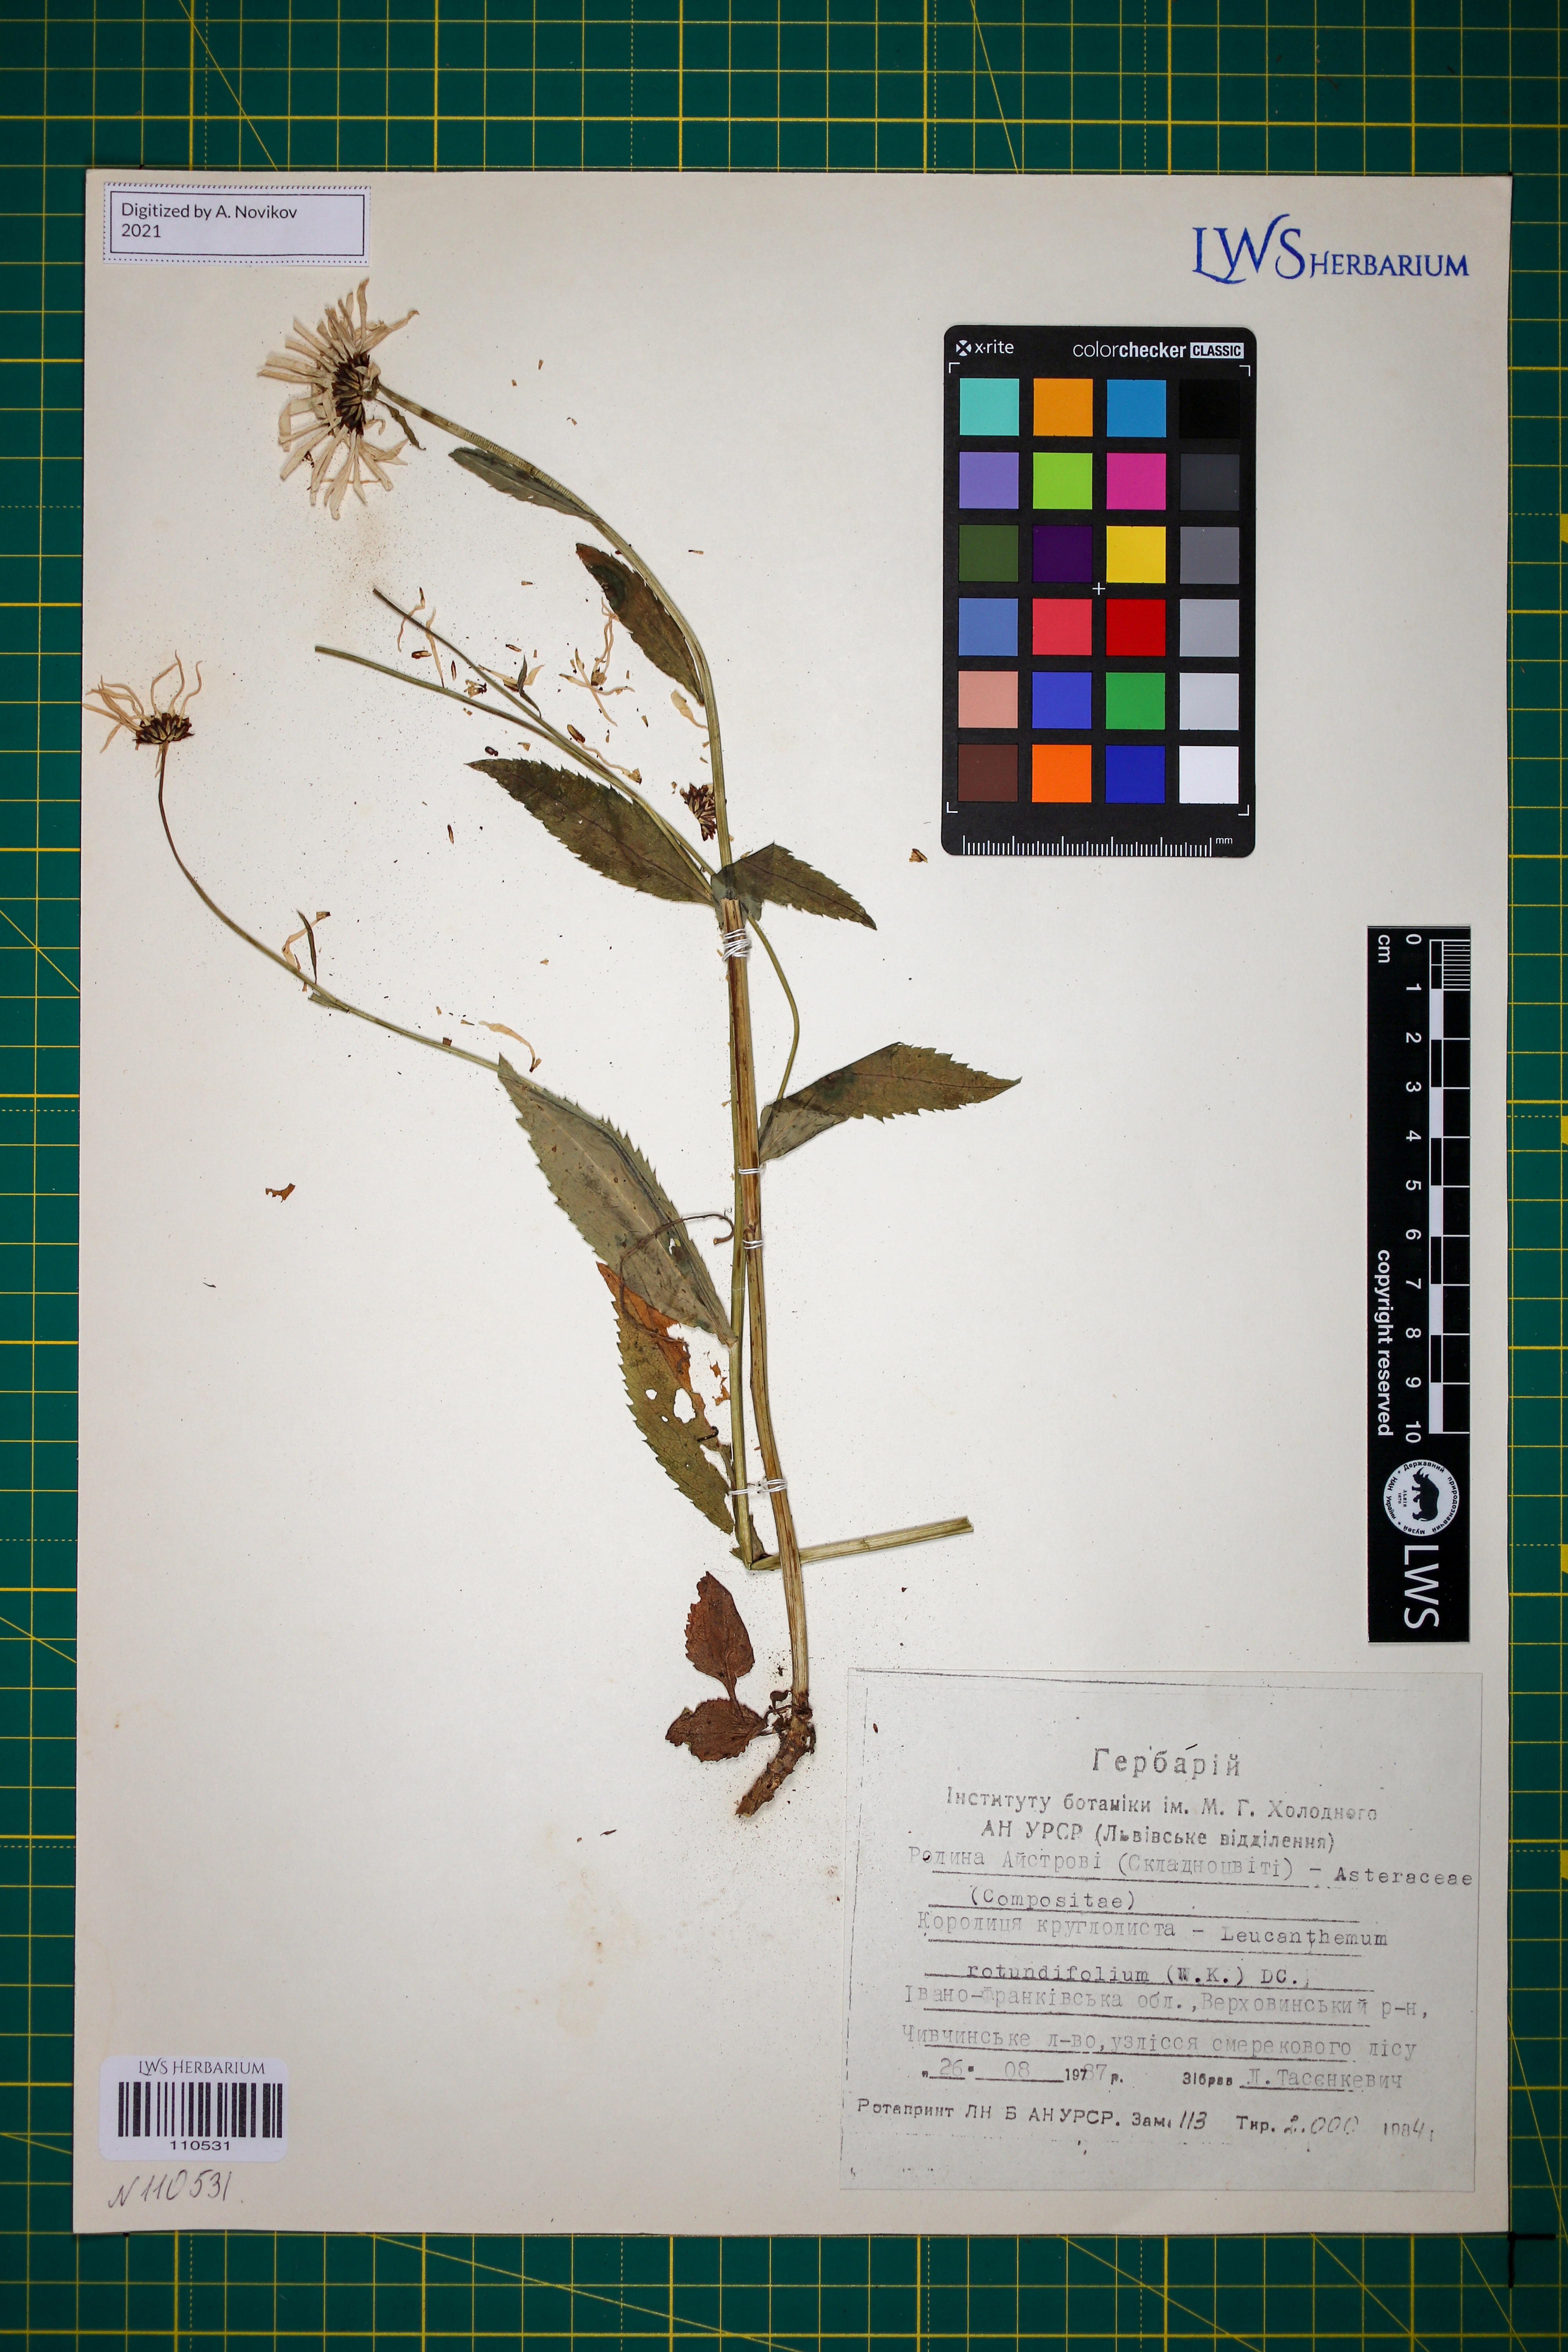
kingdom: Plantae
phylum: Tracheophyta
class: Magnoliopsida
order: Asterales
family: Asteraceae
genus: Leucanthemum
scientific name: Leucanthemum rotundifolium
